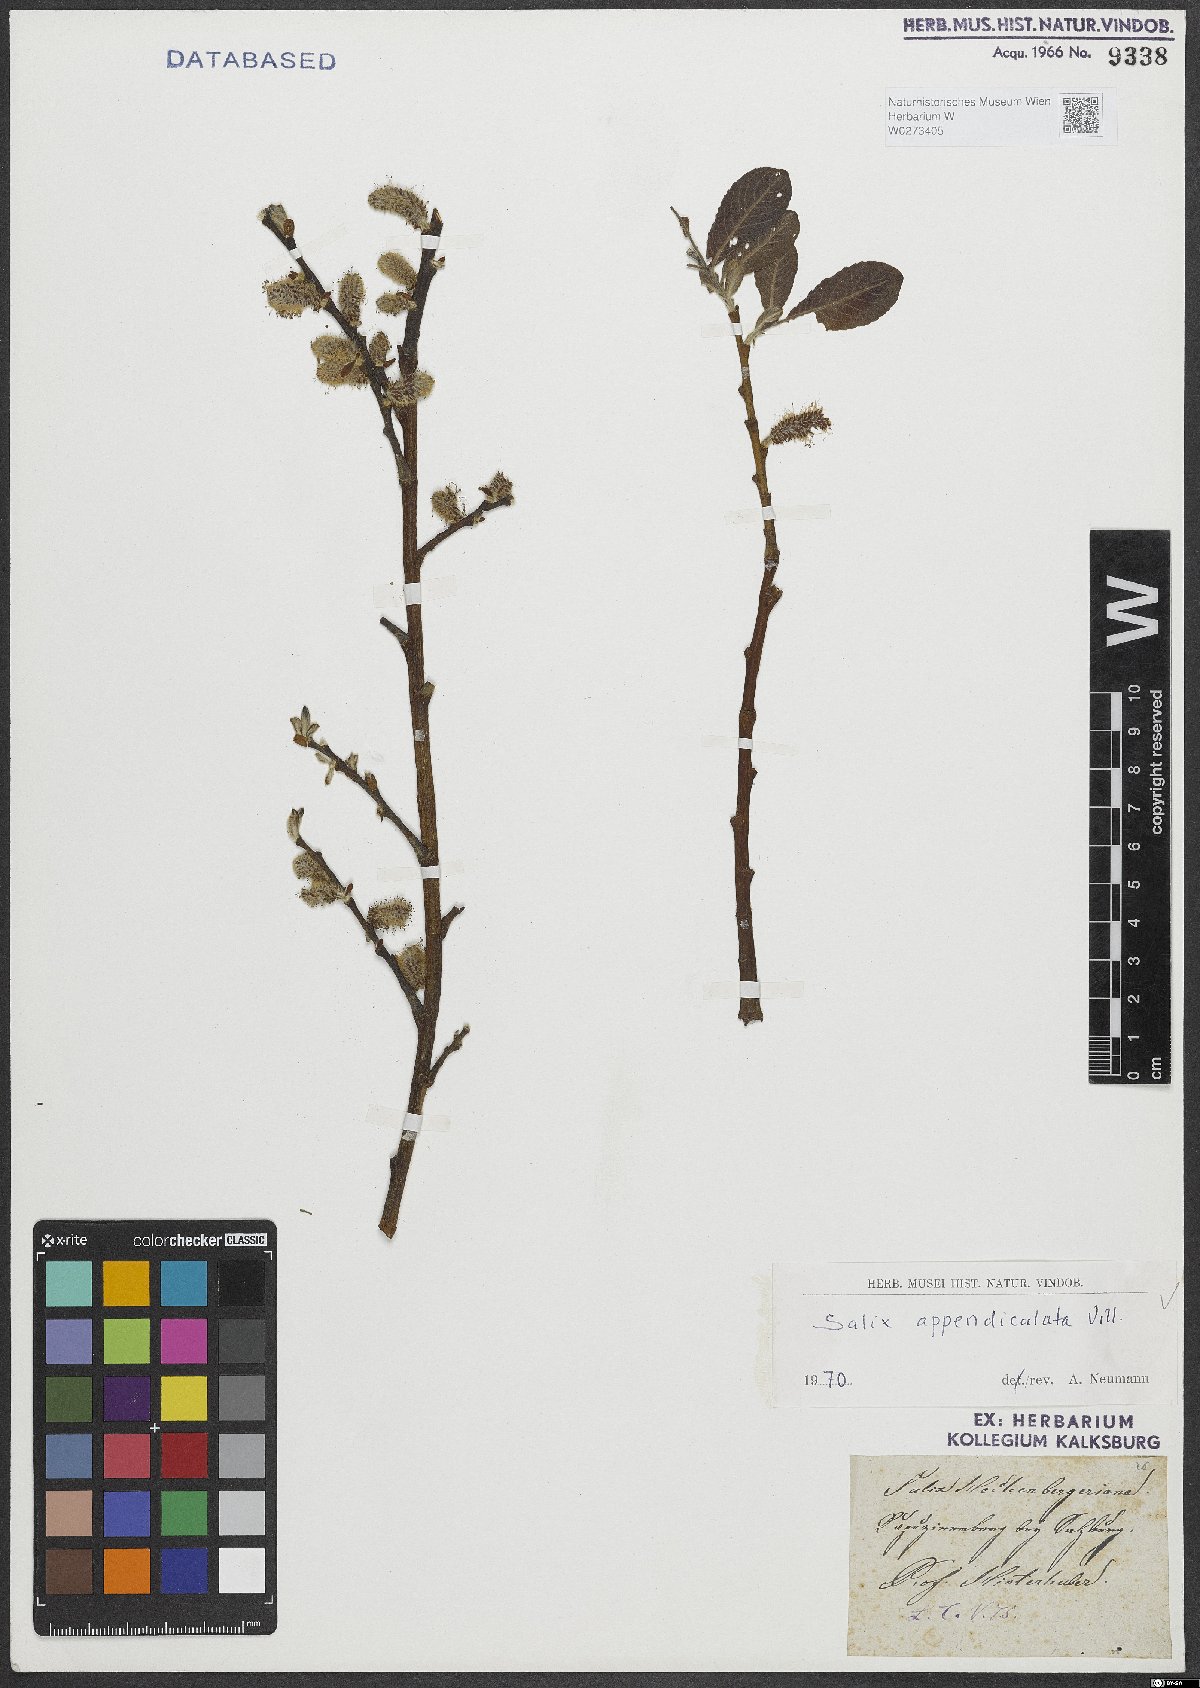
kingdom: Plantae
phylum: Tracheophyta
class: Magnoliopsida
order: Malpighiales
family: Salicaceae
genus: Salix
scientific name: Salix appendiculata
